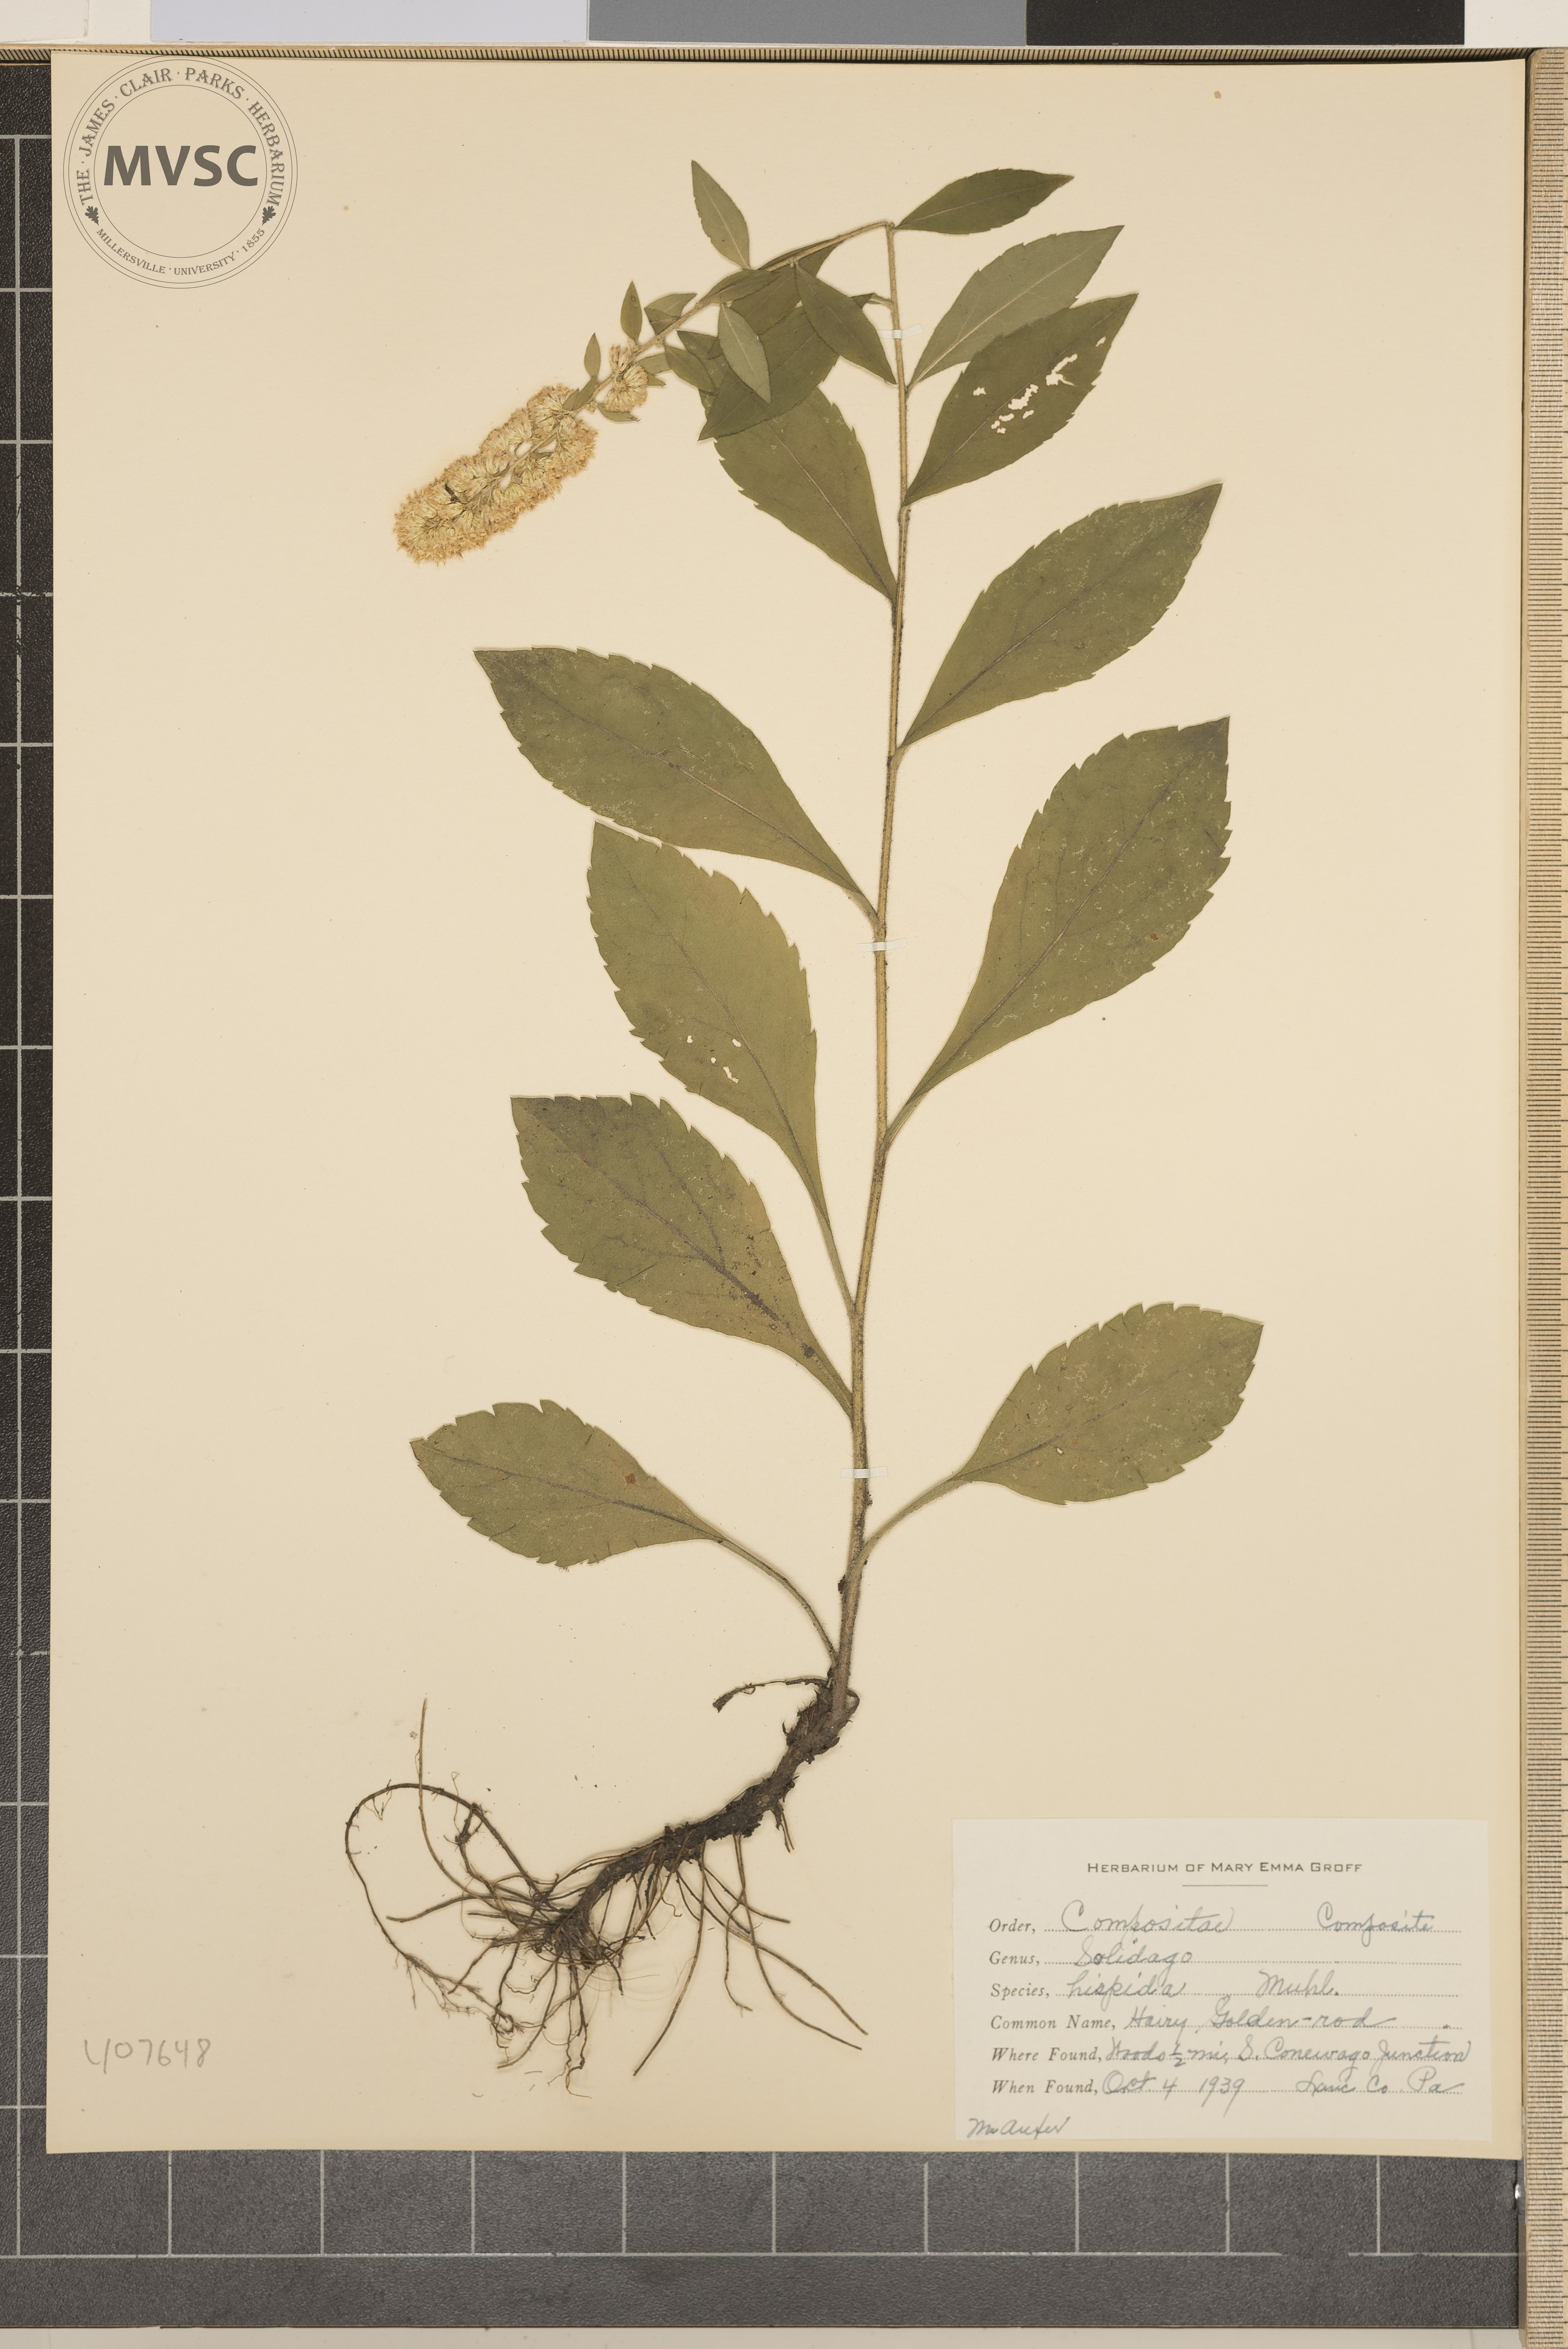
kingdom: Plantae
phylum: Tracheophyta
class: Magnoliopsida
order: Asterales
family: Asteraceae
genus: Solidago
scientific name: Solidago hispida
